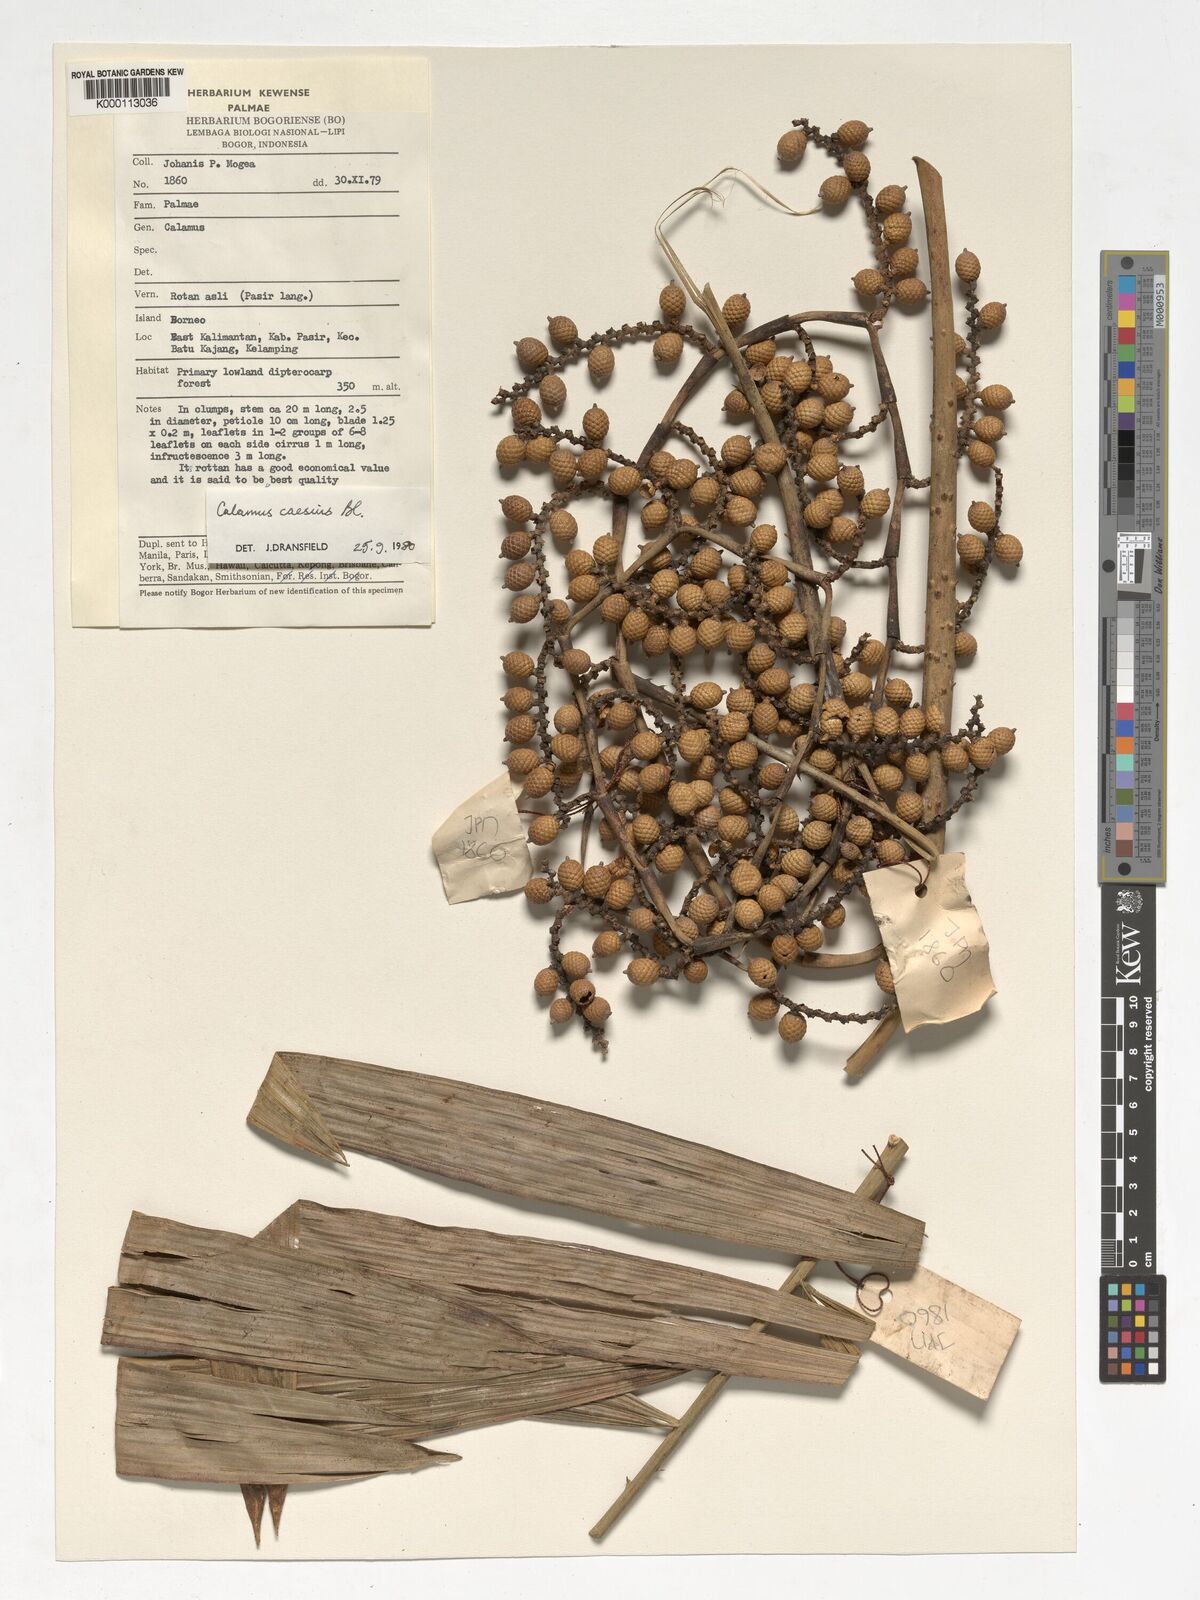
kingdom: Plantae
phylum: Tracheophyta
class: Liliopsida
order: Arecales
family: Arecaceae
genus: Calamus
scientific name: Calamus caesius
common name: Rattan palm
